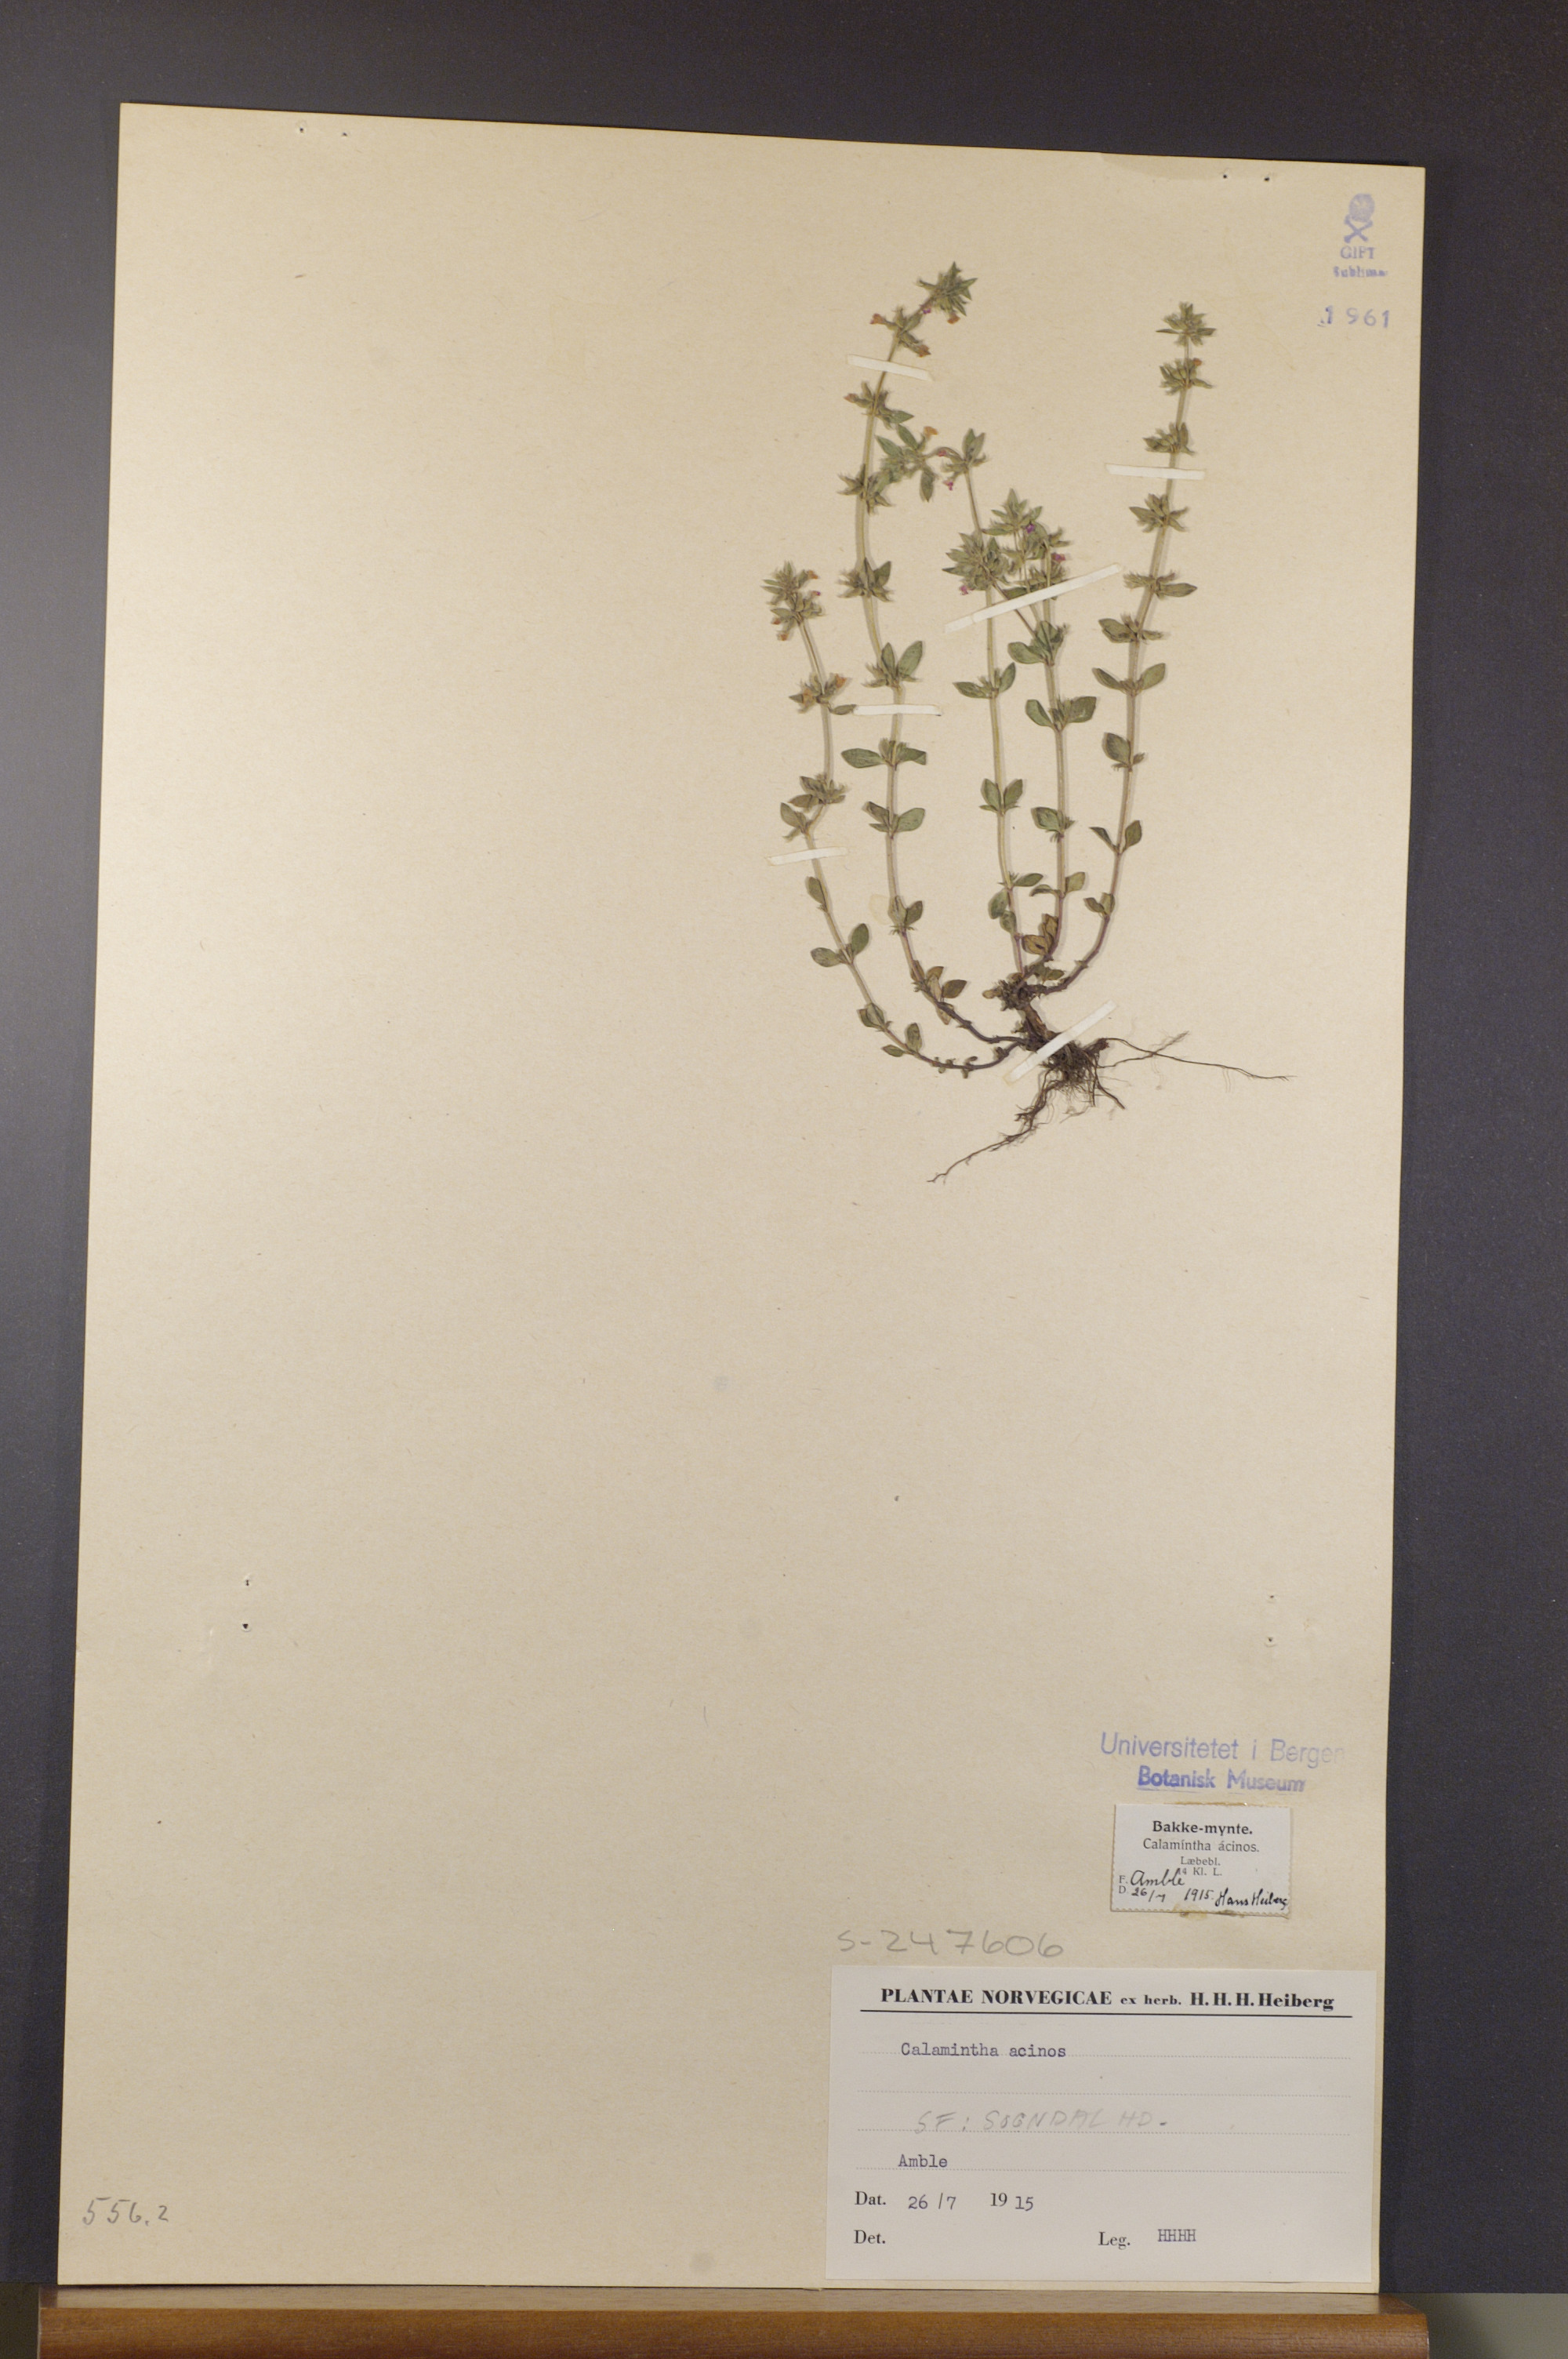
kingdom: Plantae
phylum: Tracheophyta
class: Magnoliopsida
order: Lamiales
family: Lamiaceae
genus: Clinopodium
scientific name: Clinopodium acinos
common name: Basil thyme
